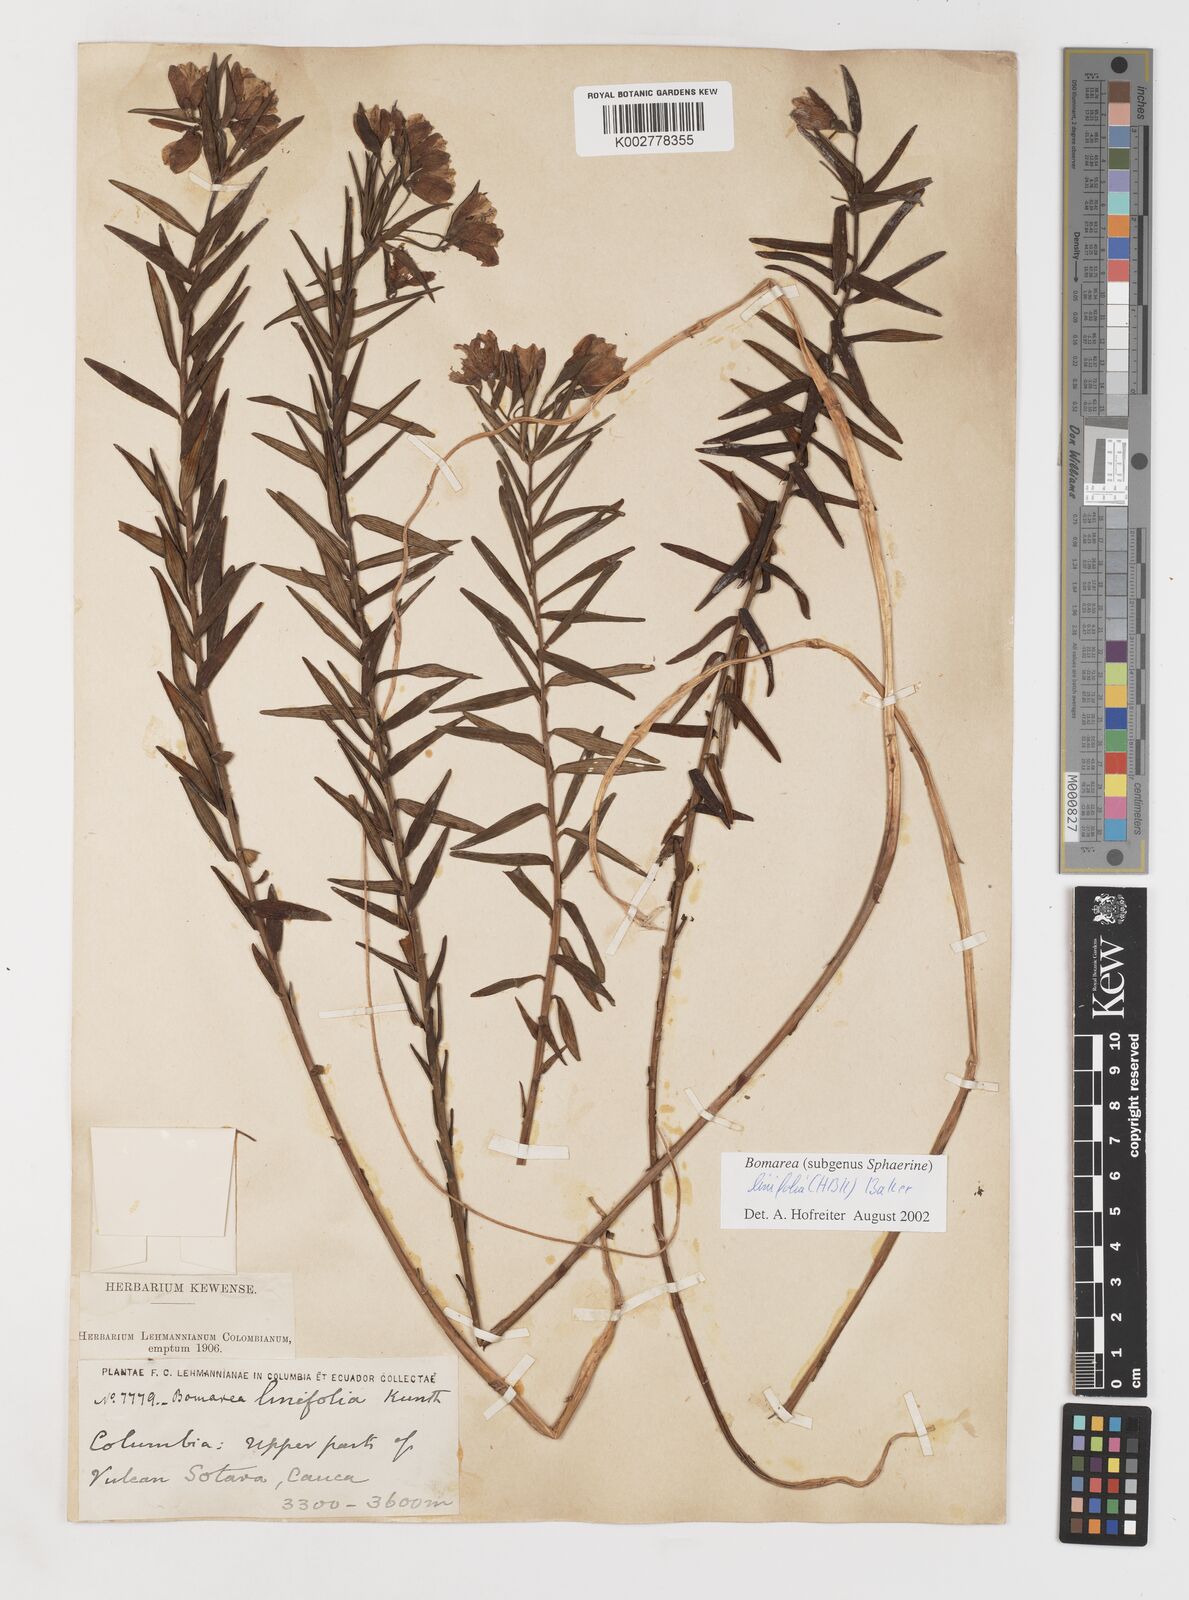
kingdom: Plantae
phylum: Tracheophyta
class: Liliopsida
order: Liliales
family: Alstroemeriaceae
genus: Bomarea
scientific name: Bomarea linifolia
